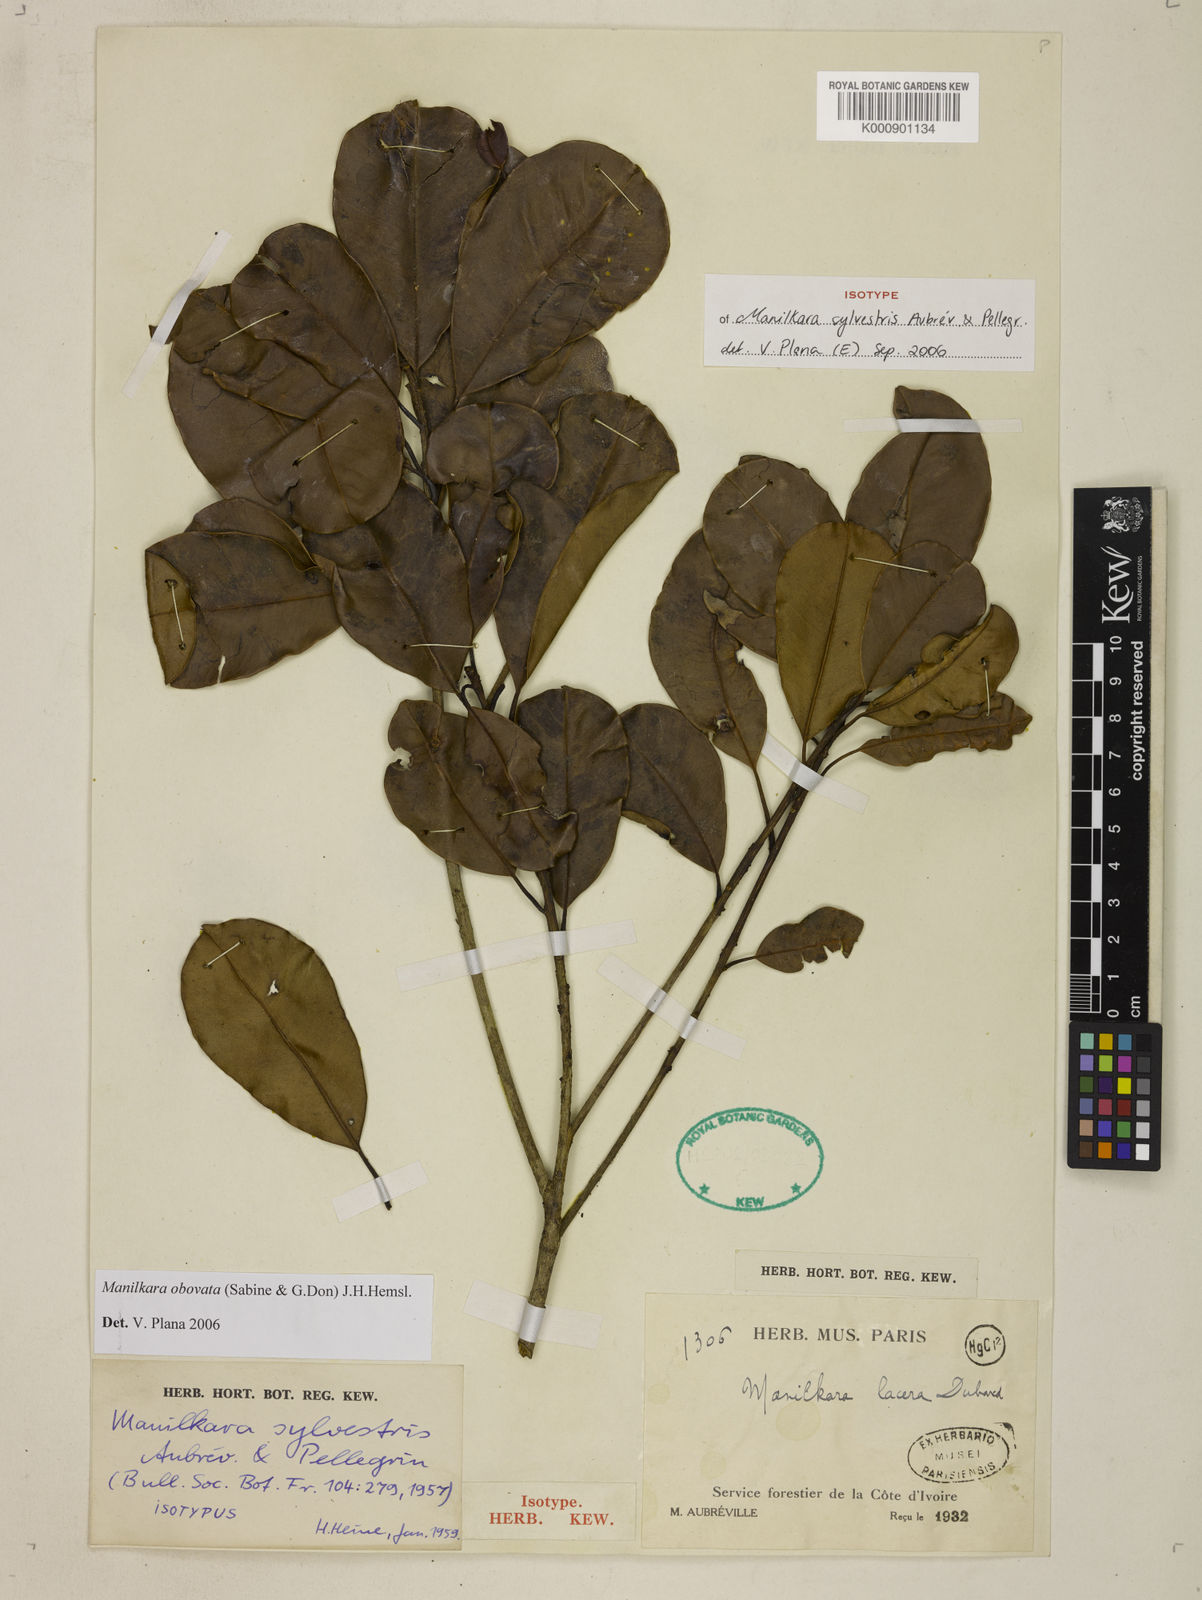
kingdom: Plantae
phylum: Tracheophyta
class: Magnoliopsida
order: Ericales
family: Sapotaceae
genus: Manilkara
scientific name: Manilkara
